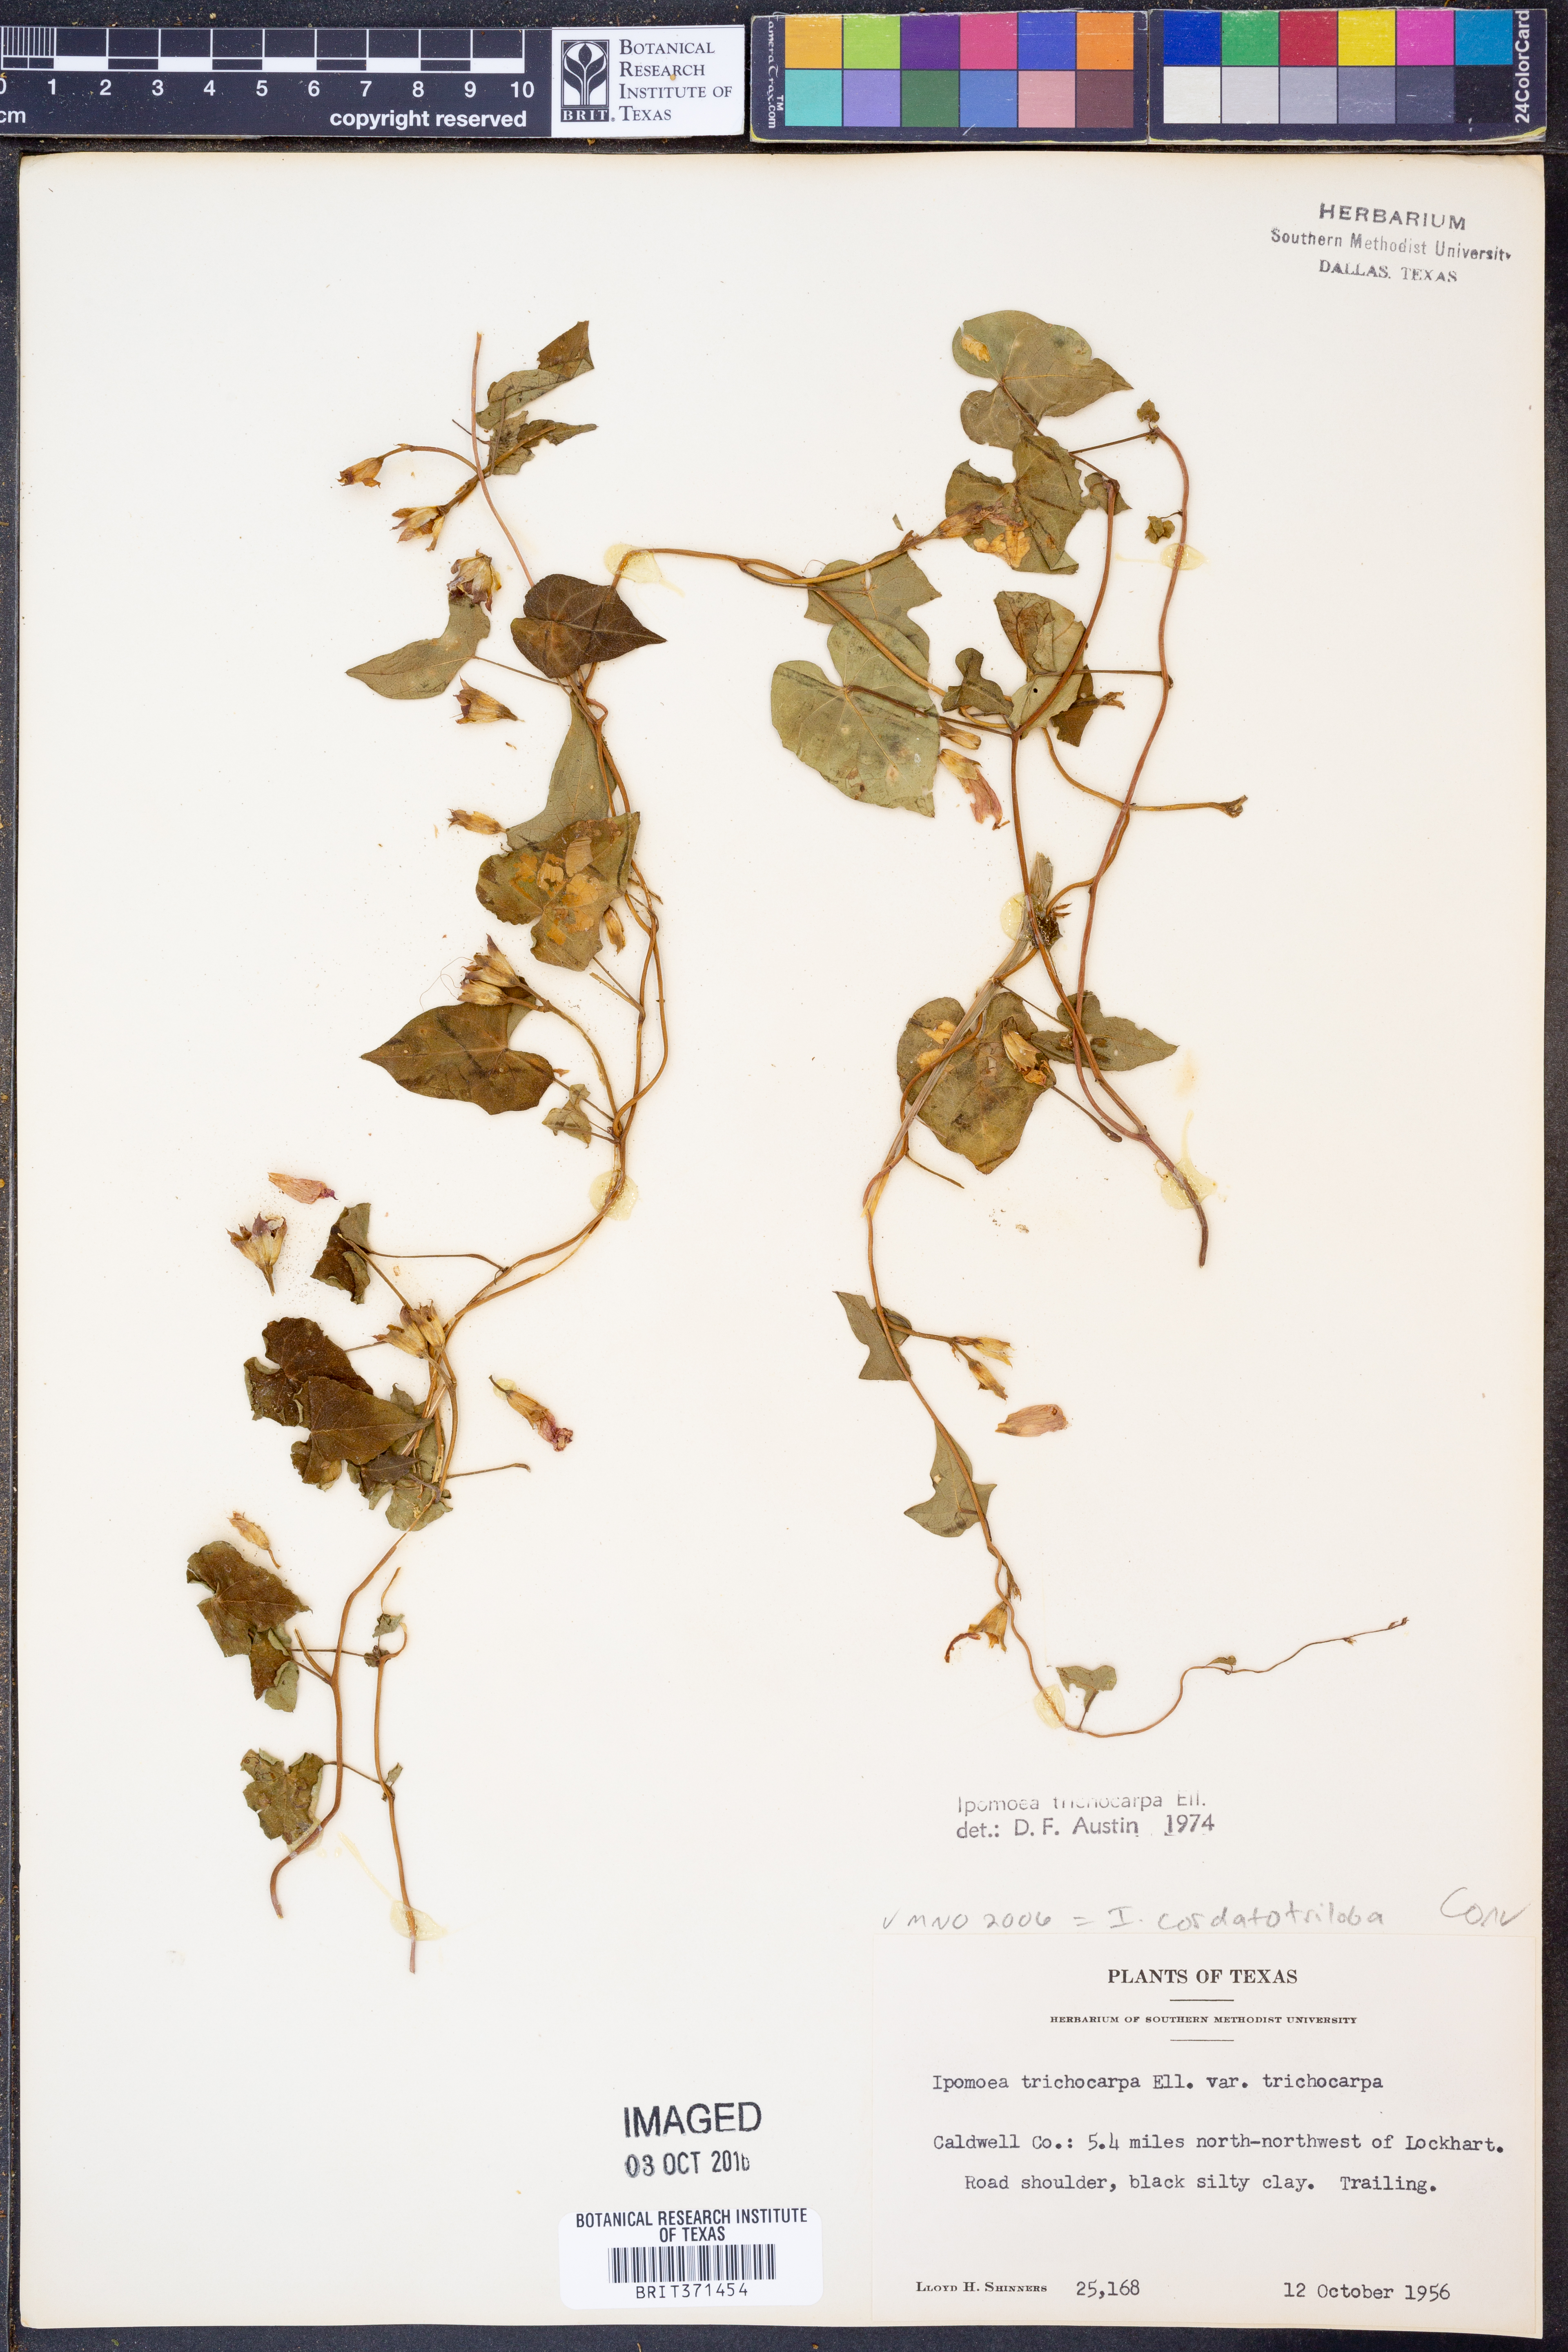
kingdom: Plantae
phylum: Tracheophyta
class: Magnoliopsida
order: Solanales
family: Convolvulaceae
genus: Ipomoea
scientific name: Ipomoea cordatotriloba
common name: Cotton morning glory
